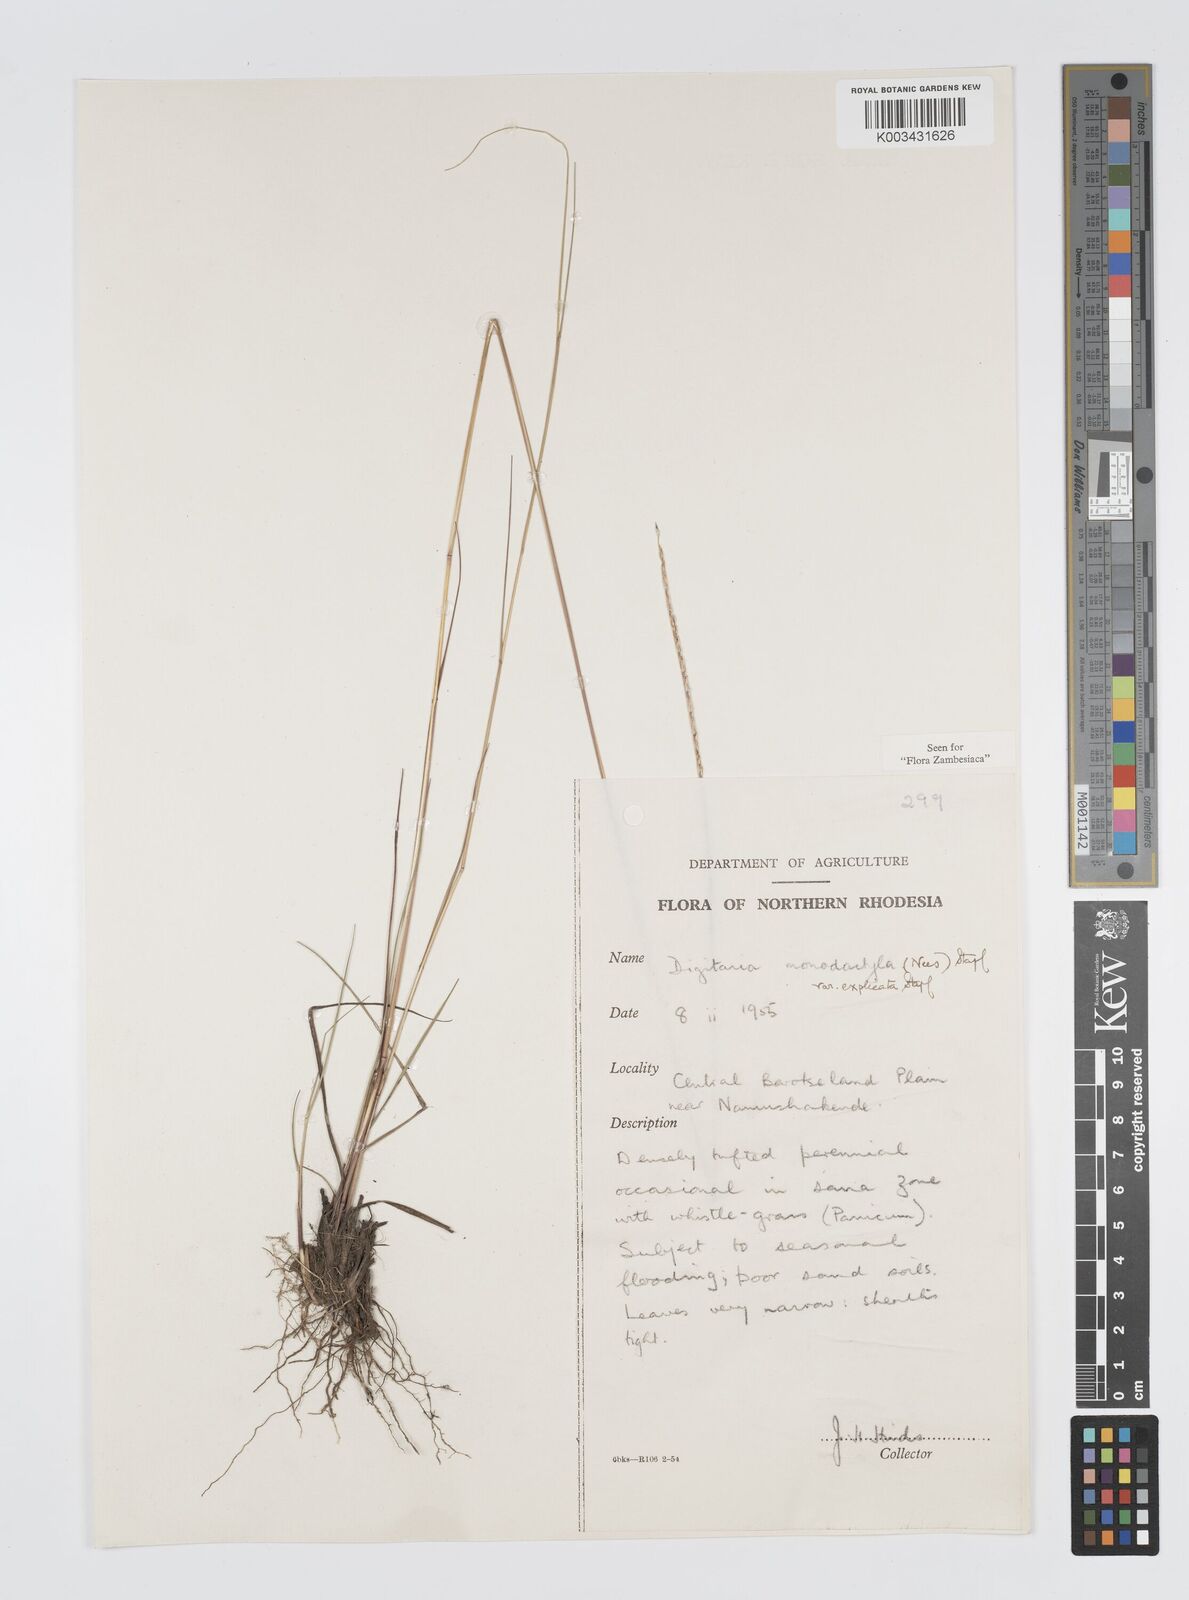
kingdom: Plantae
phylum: Tracheophyta
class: Liliopsida
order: Poales
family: Poaceae
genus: Digitaria
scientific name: Digitaria monodactyla
